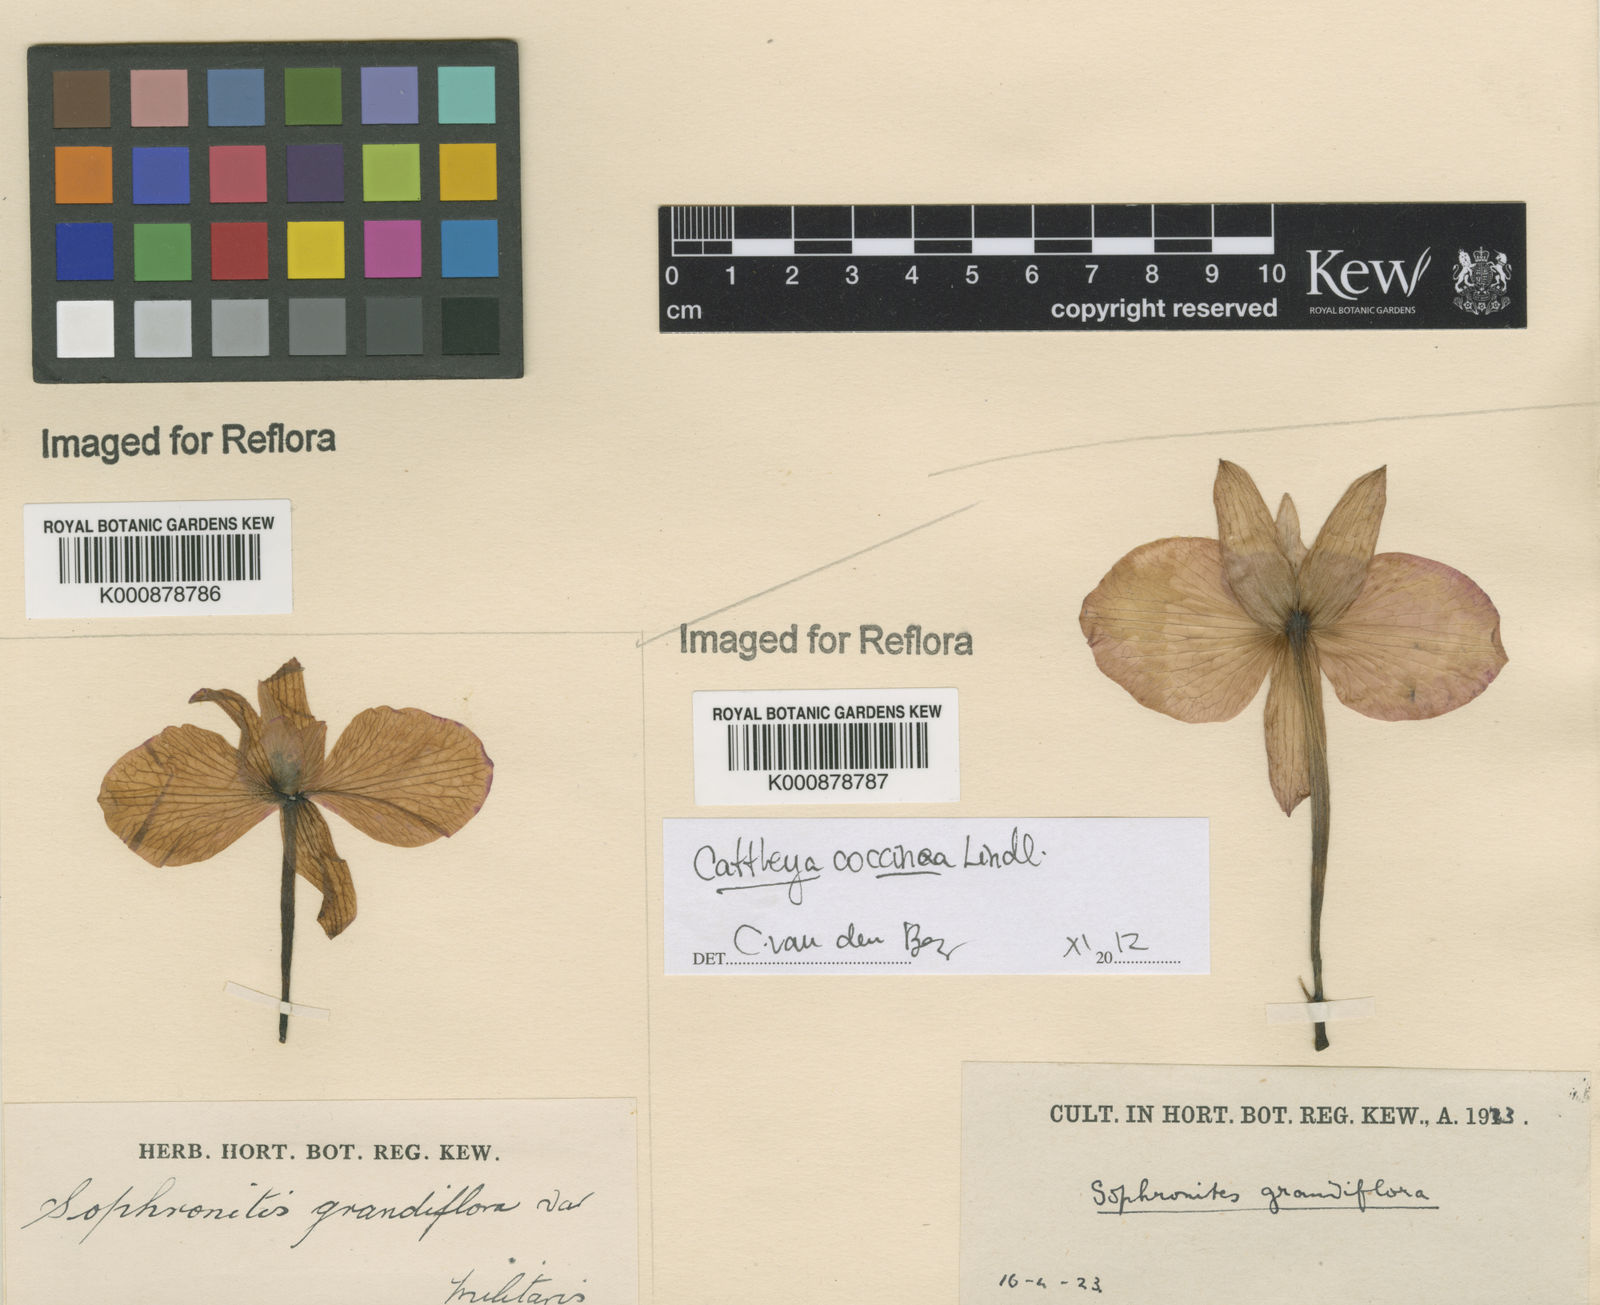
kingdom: Plantae
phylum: Tracheophyta
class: Liliopsida
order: Asparagales
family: Orchidaceae
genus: Cattleya
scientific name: Cattleya coccinea
